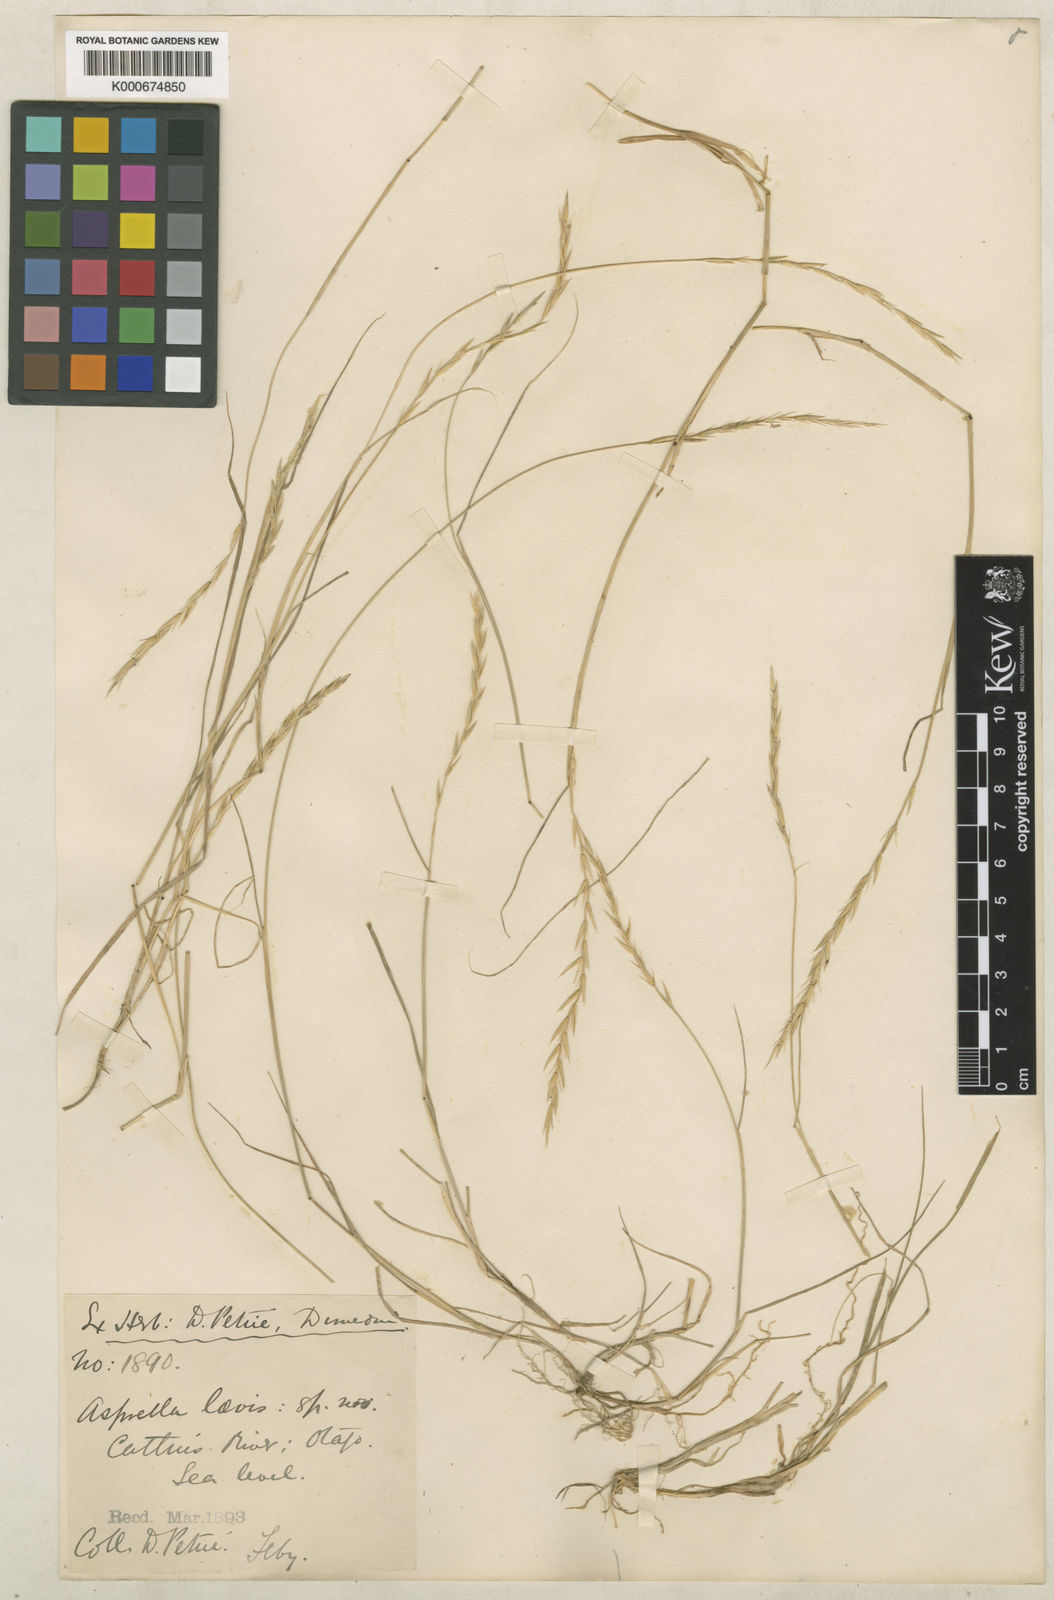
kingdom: Plantae
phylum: Tracheophyta
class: Liliopsida
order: Poales
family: Poaceae
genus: Stenostachys
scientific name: Stenostachys laevis
